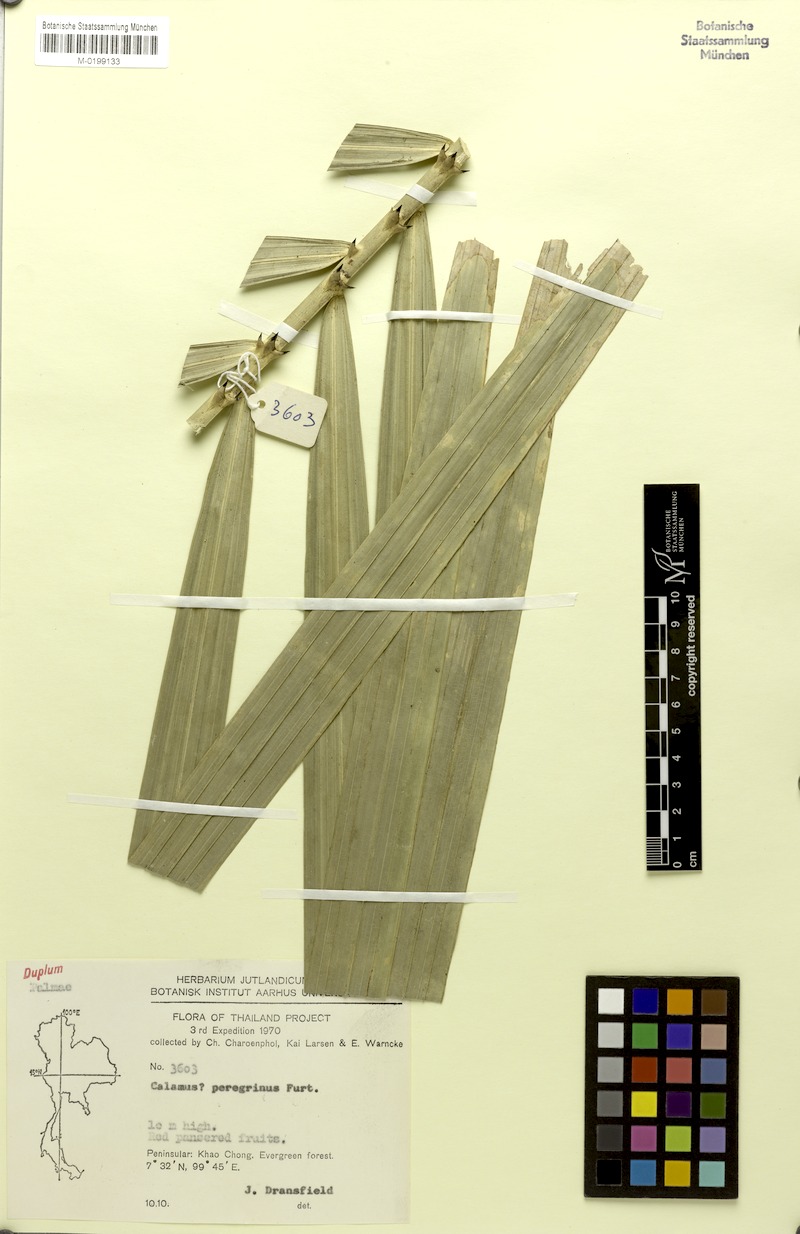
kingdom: Plantae
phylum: Tracheophyta
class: Liliopsida
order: Arecales
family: Arecaceae
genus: Calamus
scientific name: Calamus peregrinus
